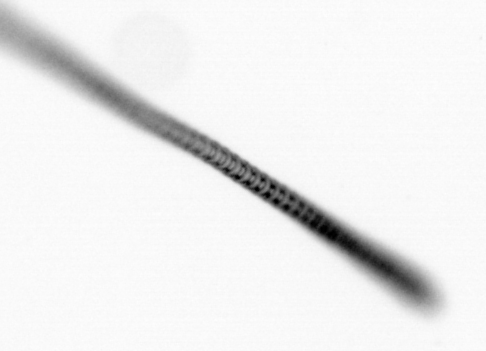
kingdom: Chromista
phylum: Ochrophyta
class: Bacillariophyceae
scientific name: Bacillariophyceae
